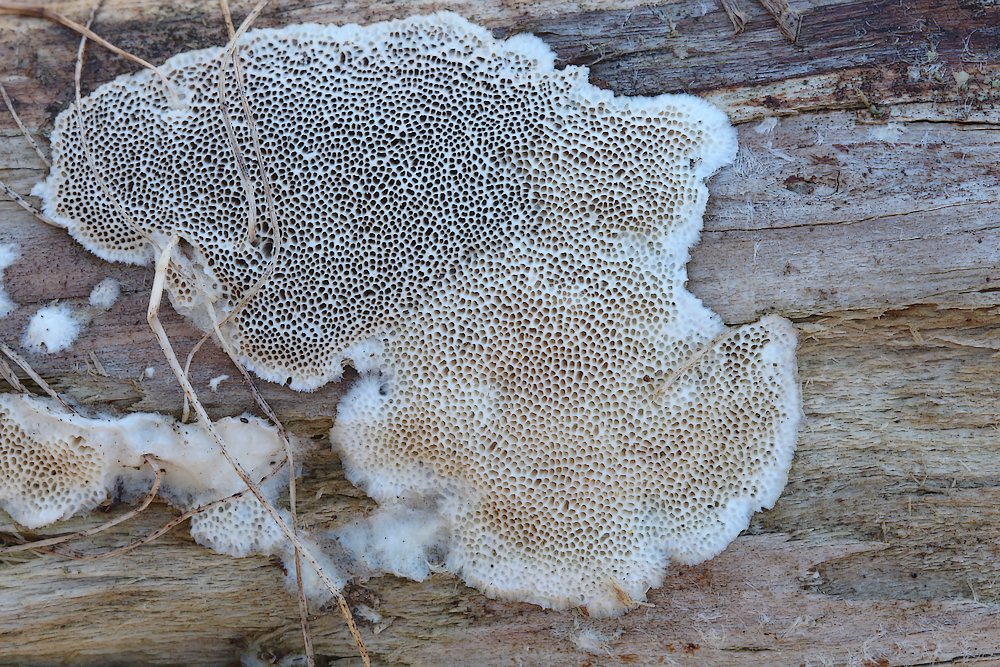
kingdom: Fungi
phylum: Basidiomycota
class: Agaricomycetes
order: Polyporales
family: Polyporaceae
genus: Trametes
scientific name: Trametes hirsuta
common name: håret læderporesvamp
